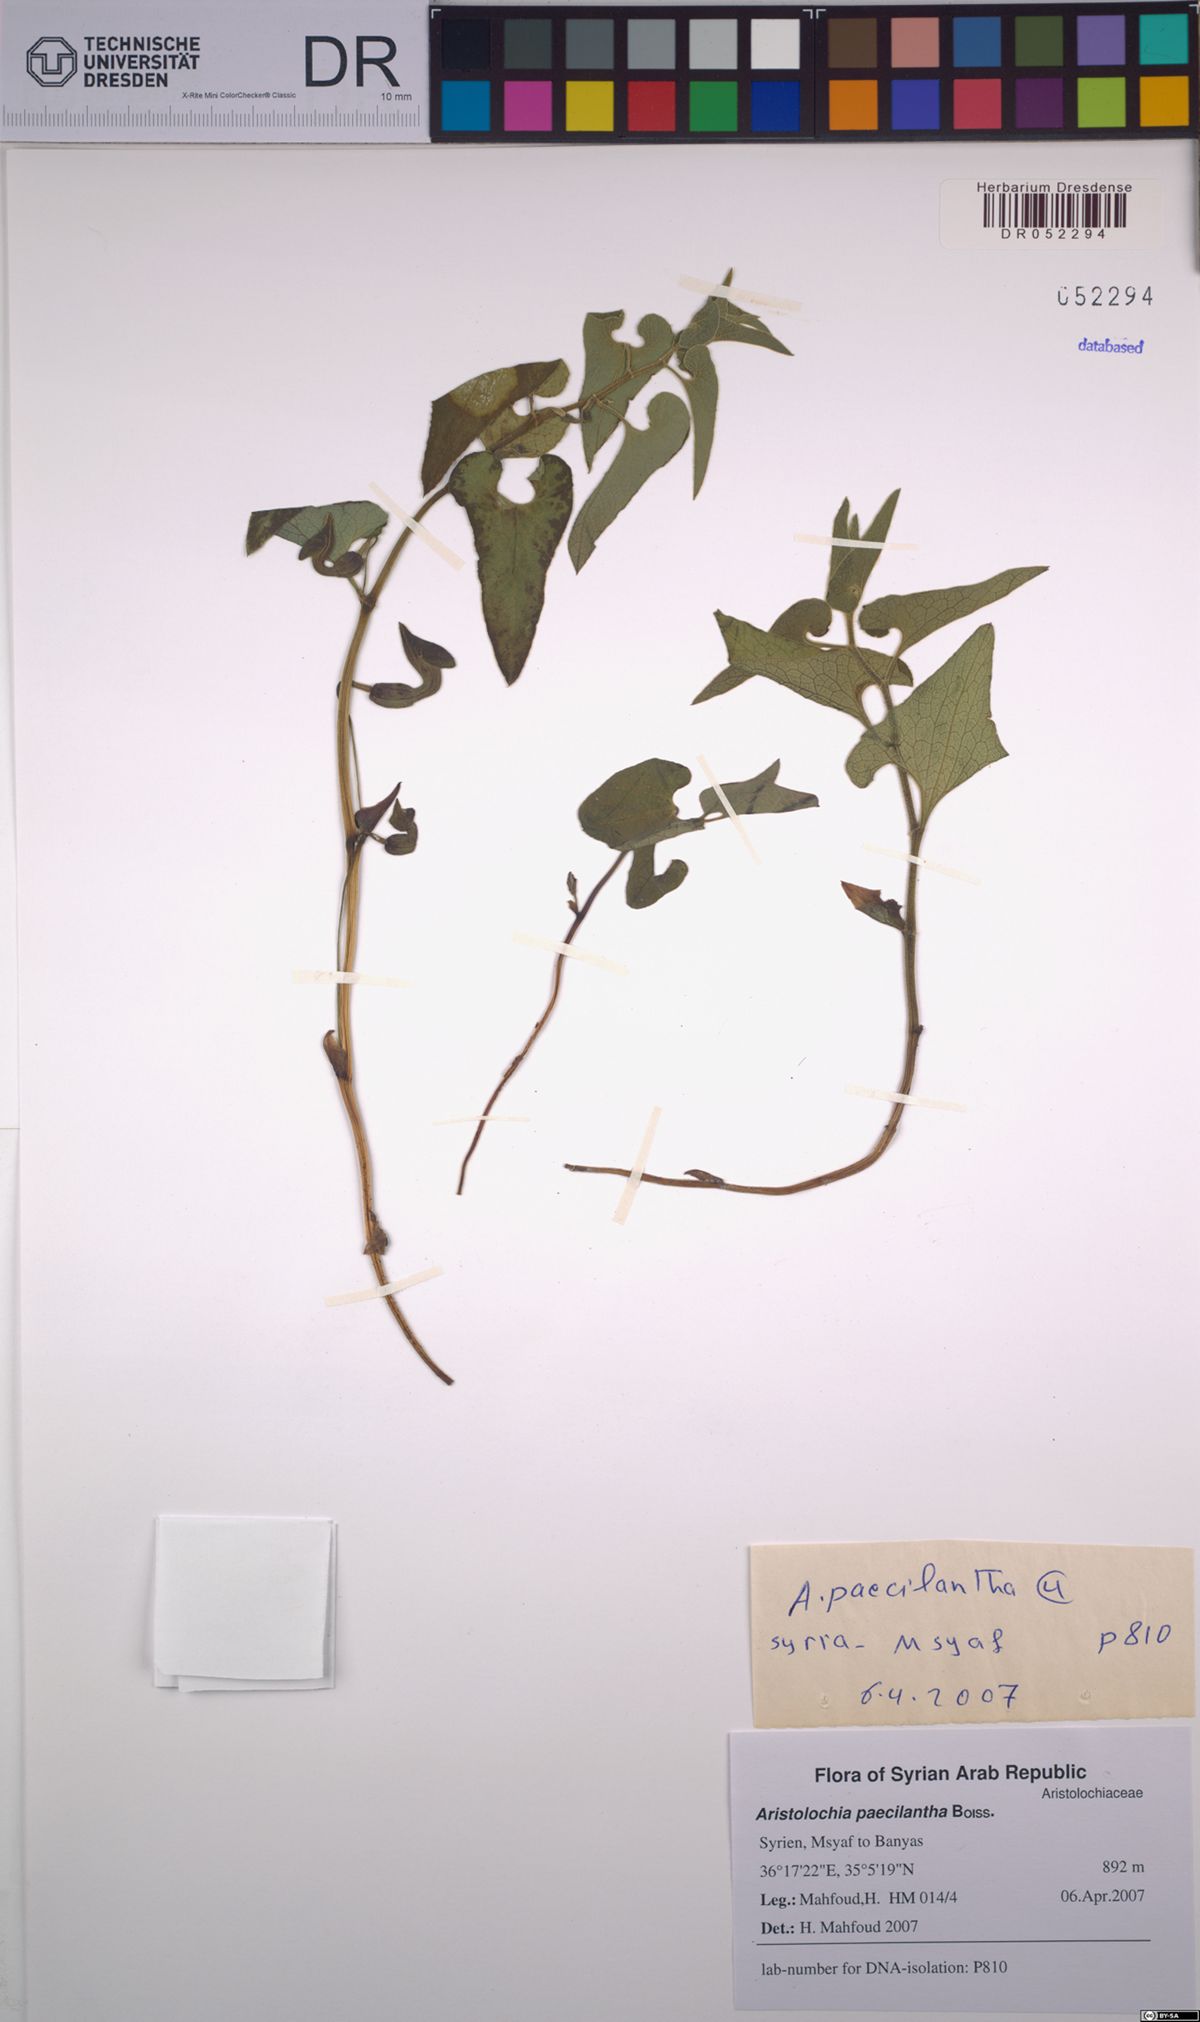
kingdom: Plantae
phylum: Tracheophyta
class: Magnoliopsida
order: Piperales
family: Aristolochiaceae
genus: Aristolochia
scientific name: Aristolochia paecilantha
